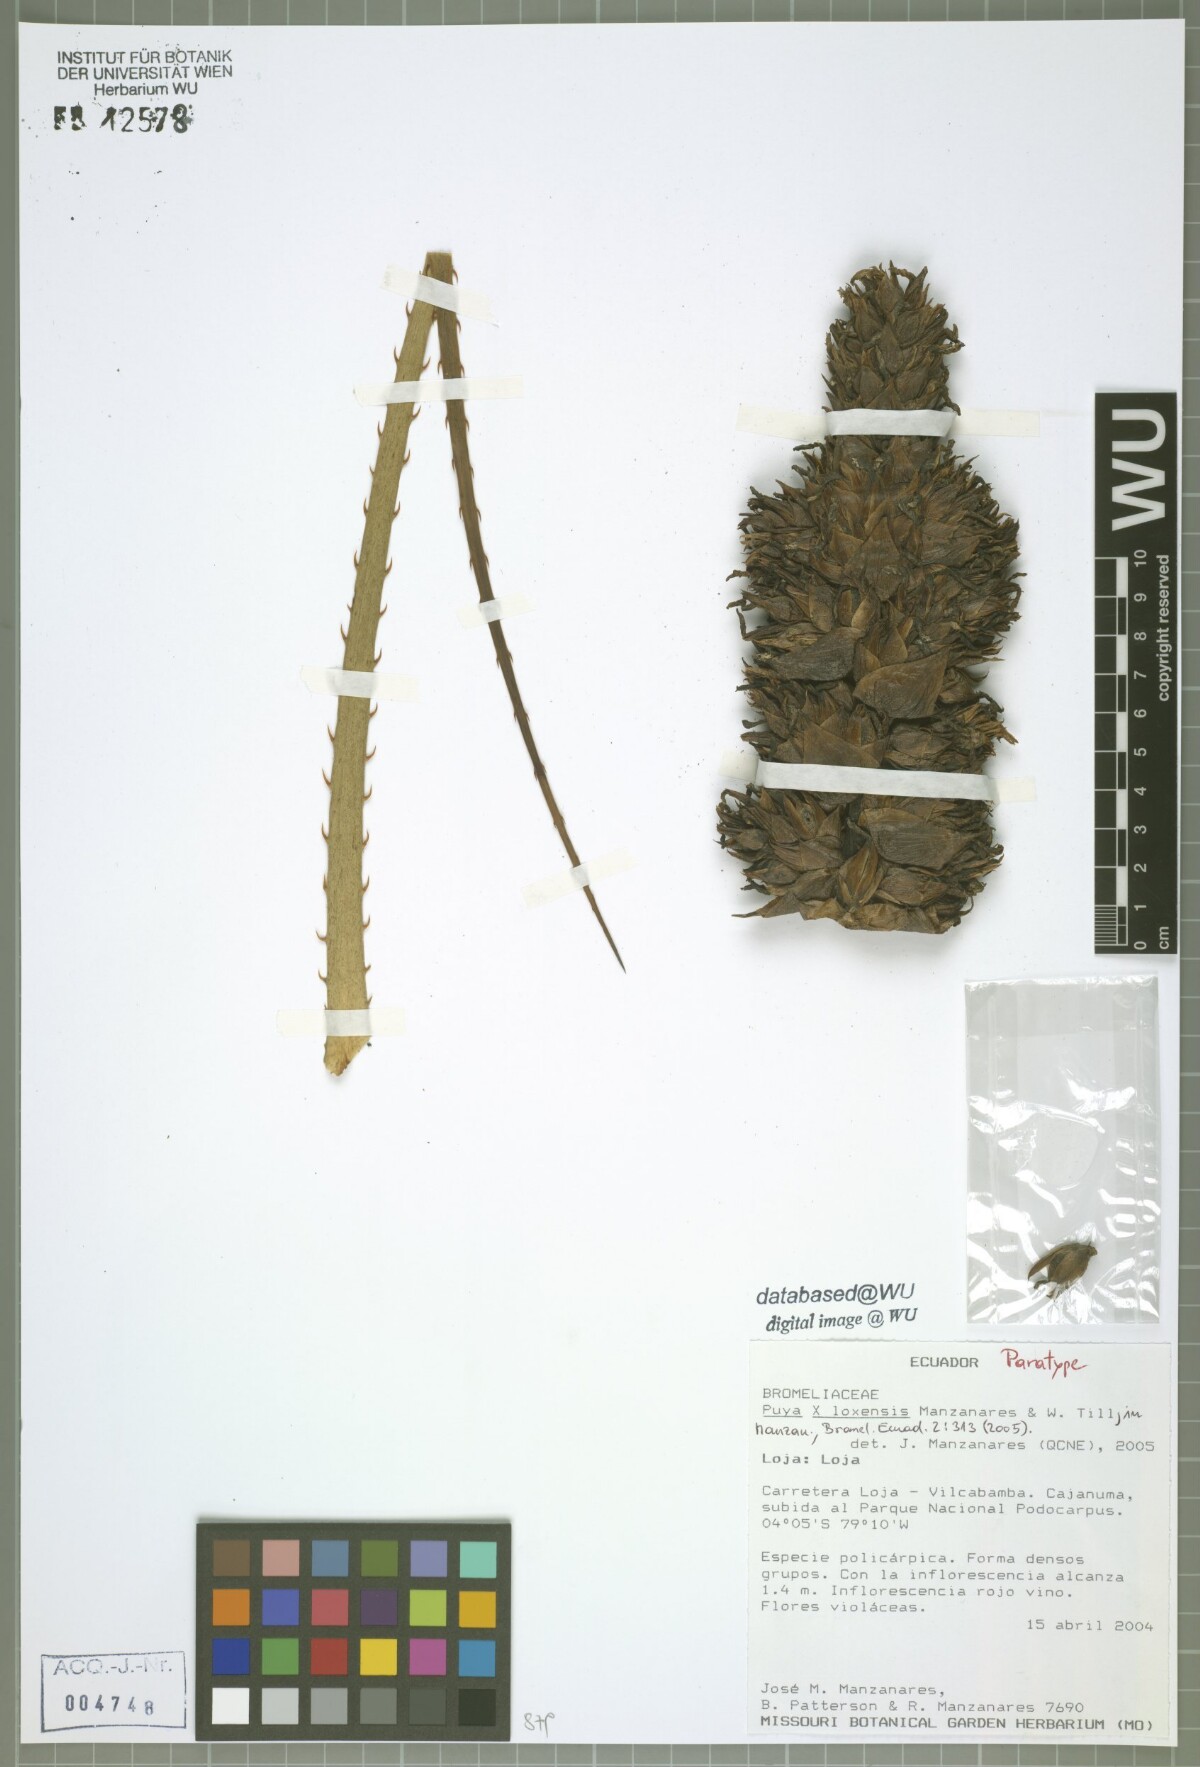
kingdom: Plantae
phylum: Tracheophyta
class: Liliopsida
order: Poales
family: Bromeliaceae
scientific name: Bromeliaceae
